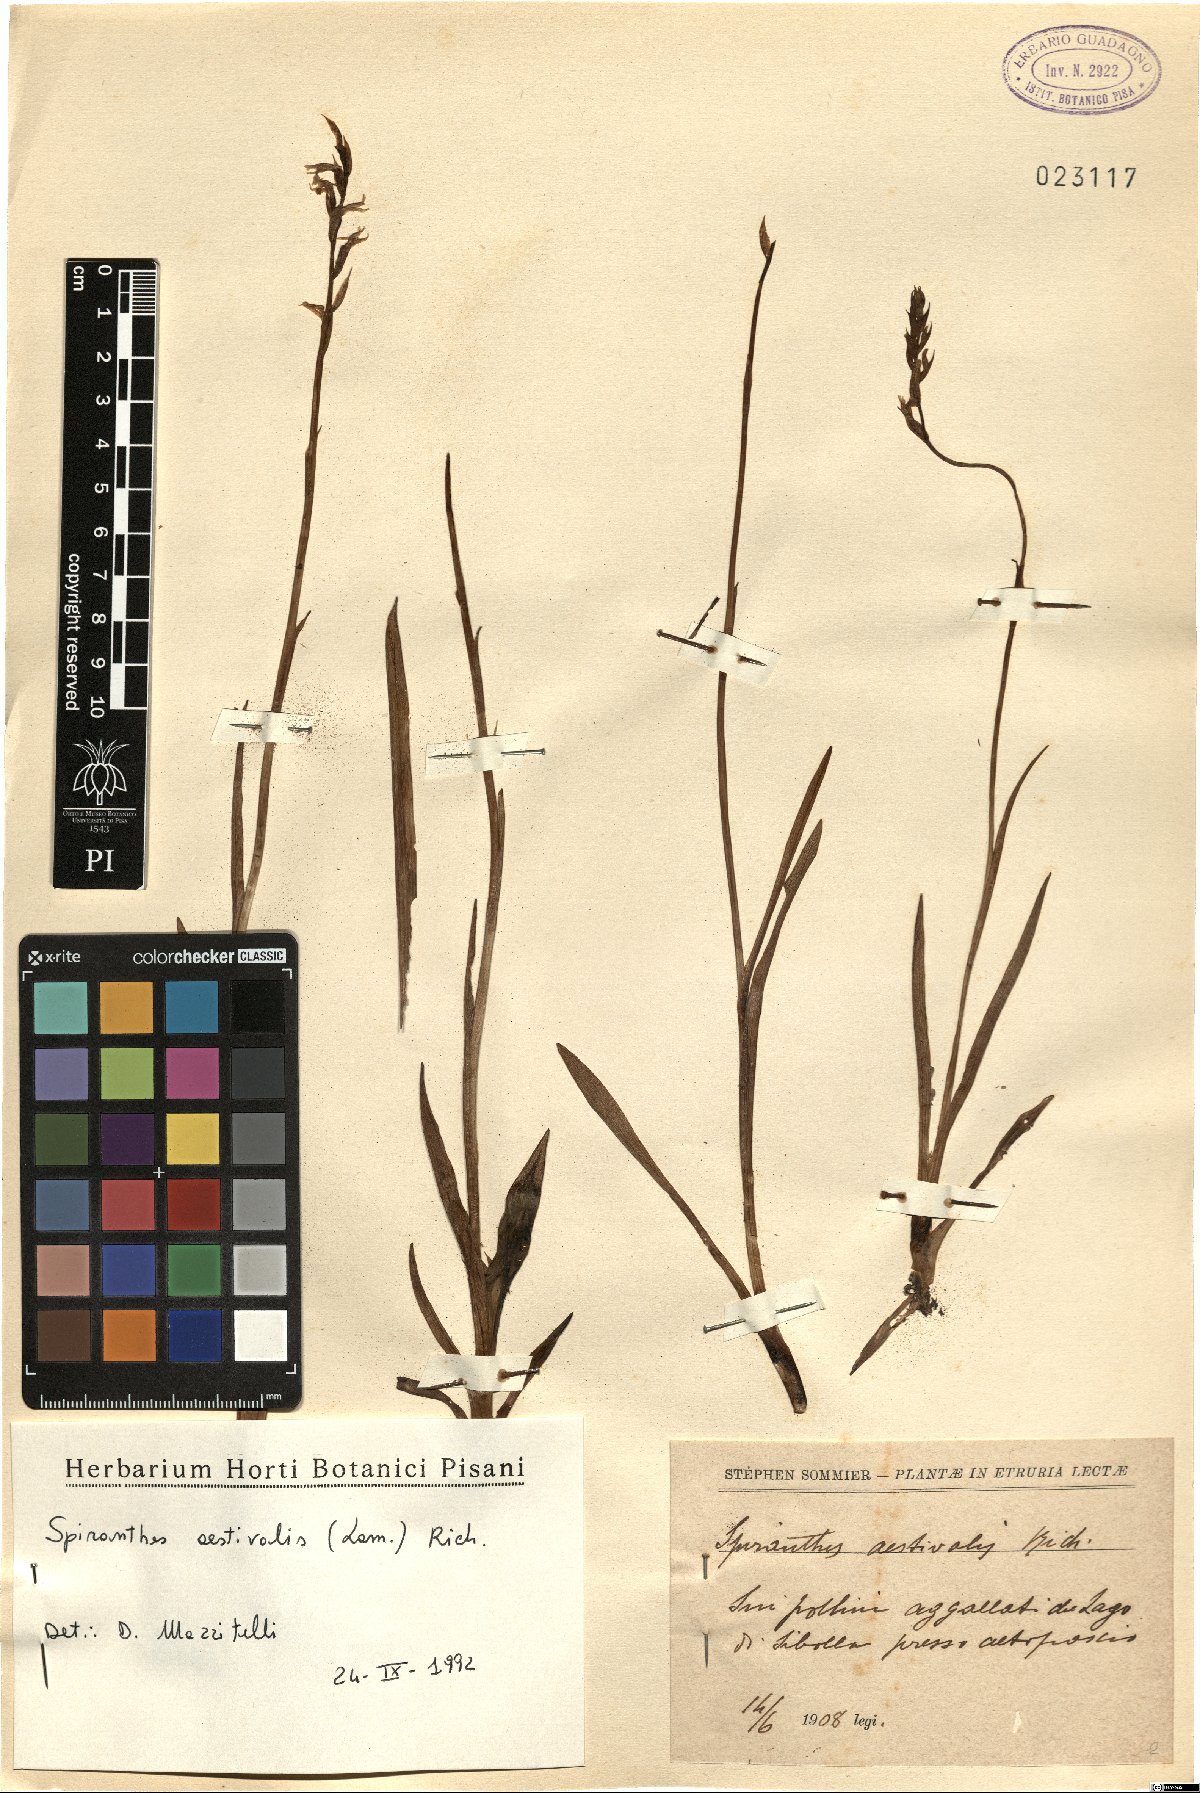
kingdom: Plantae
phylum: Tracheophyta
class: Liliopsida
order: Asparagales
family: Orchidaceae
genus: Spiranthes
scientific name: Spiranthes aestivalis
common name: Summer lady's-tresses
